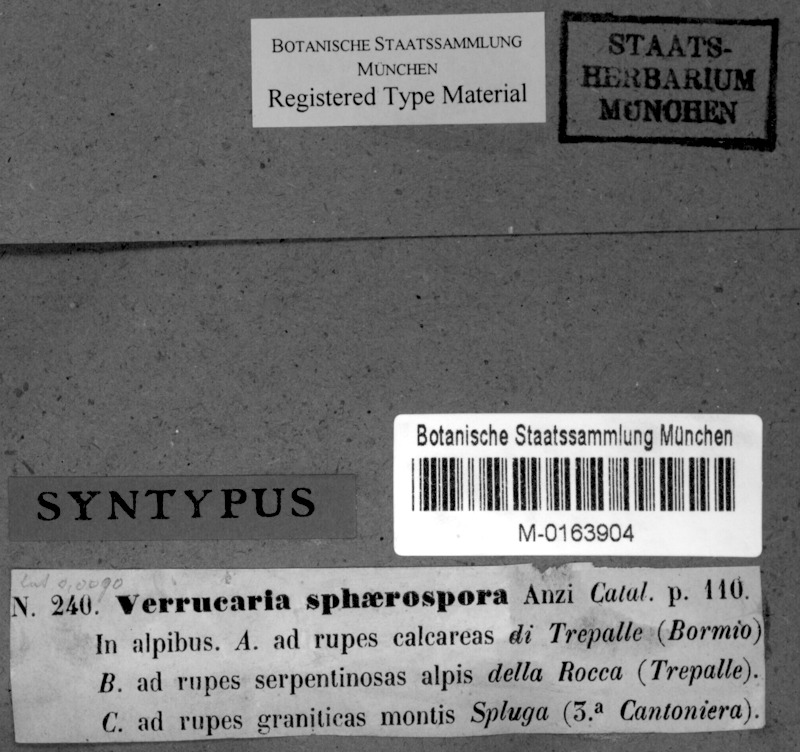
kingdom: Fungi
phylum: Ascomycota
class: Eurotiomycetes
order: Verrucariales
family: Verrucariaceae
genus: Verrucaria
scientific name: Verrucaria sphaerospora
